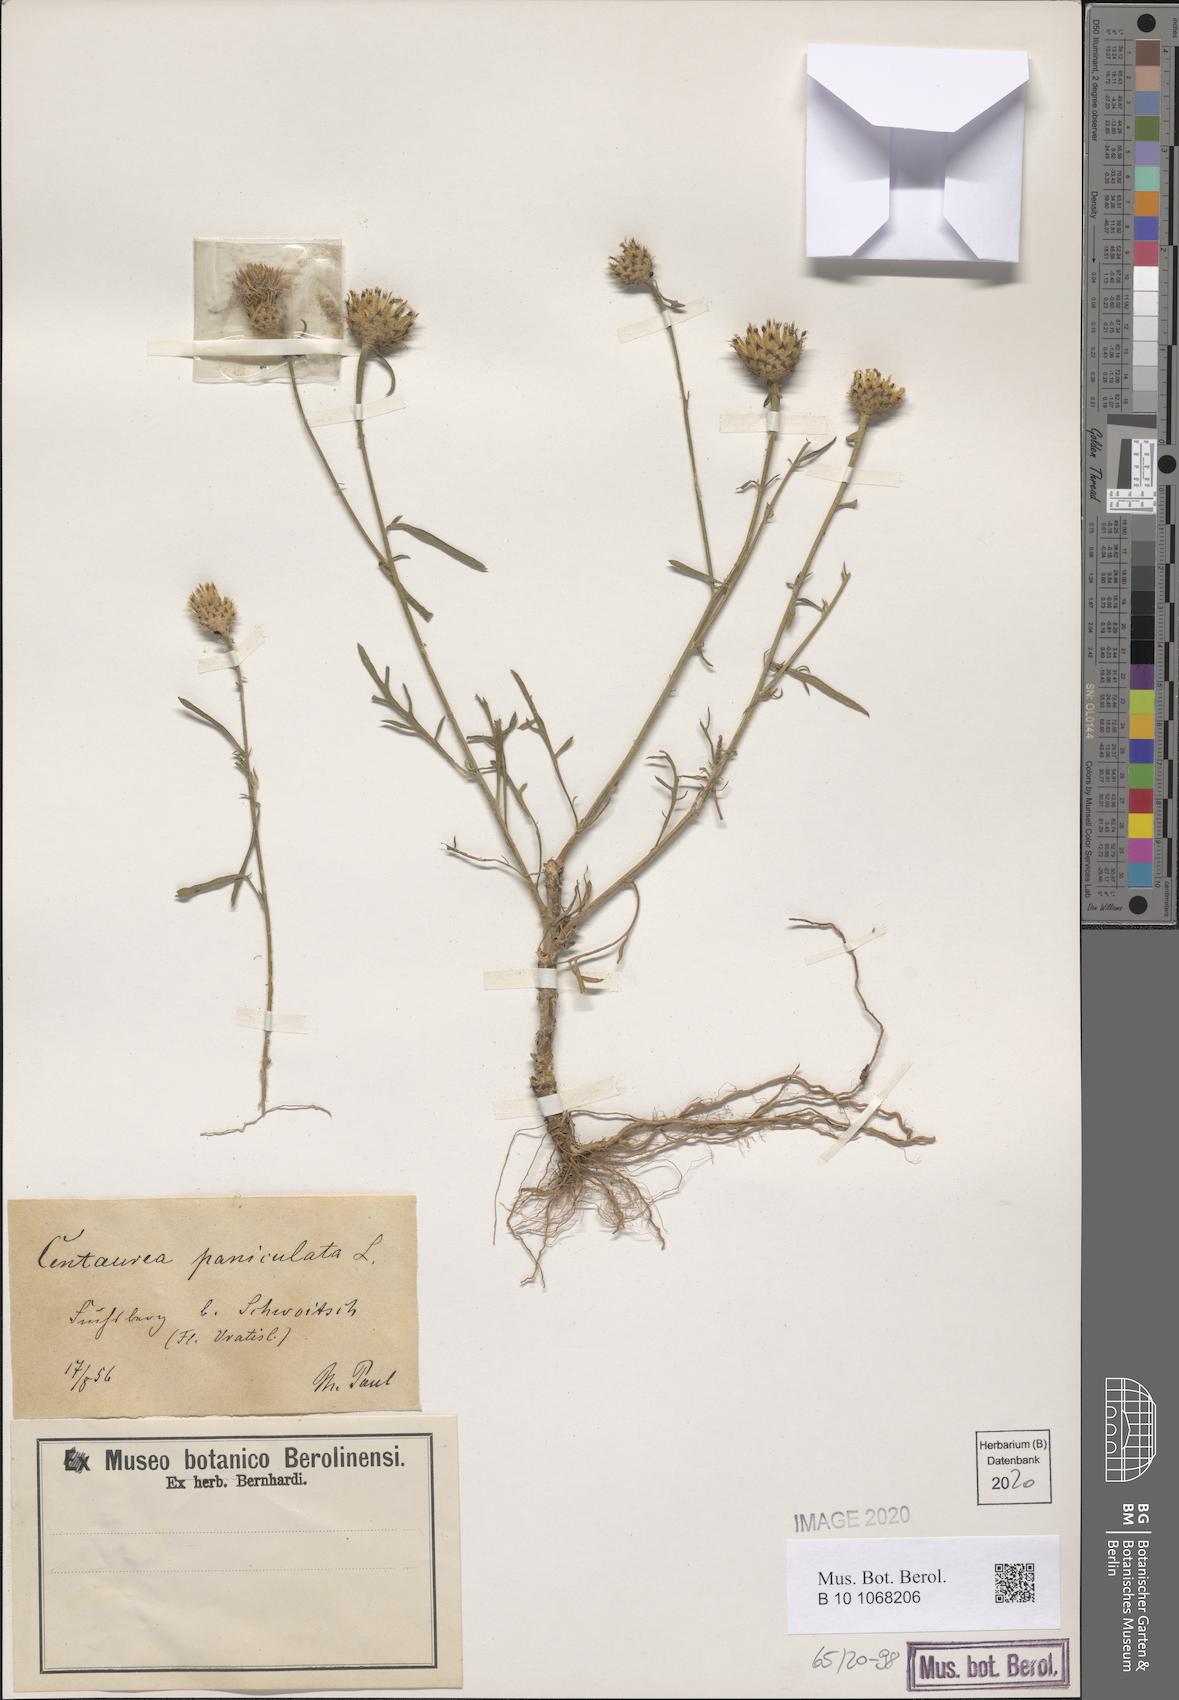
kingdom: Plantae
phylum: Tracheophyta
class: Magnoliopsida
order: Asterales
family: Asteraceae
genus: Centaurea
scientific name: Centaurea stoebe
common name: Spotted knapweed
